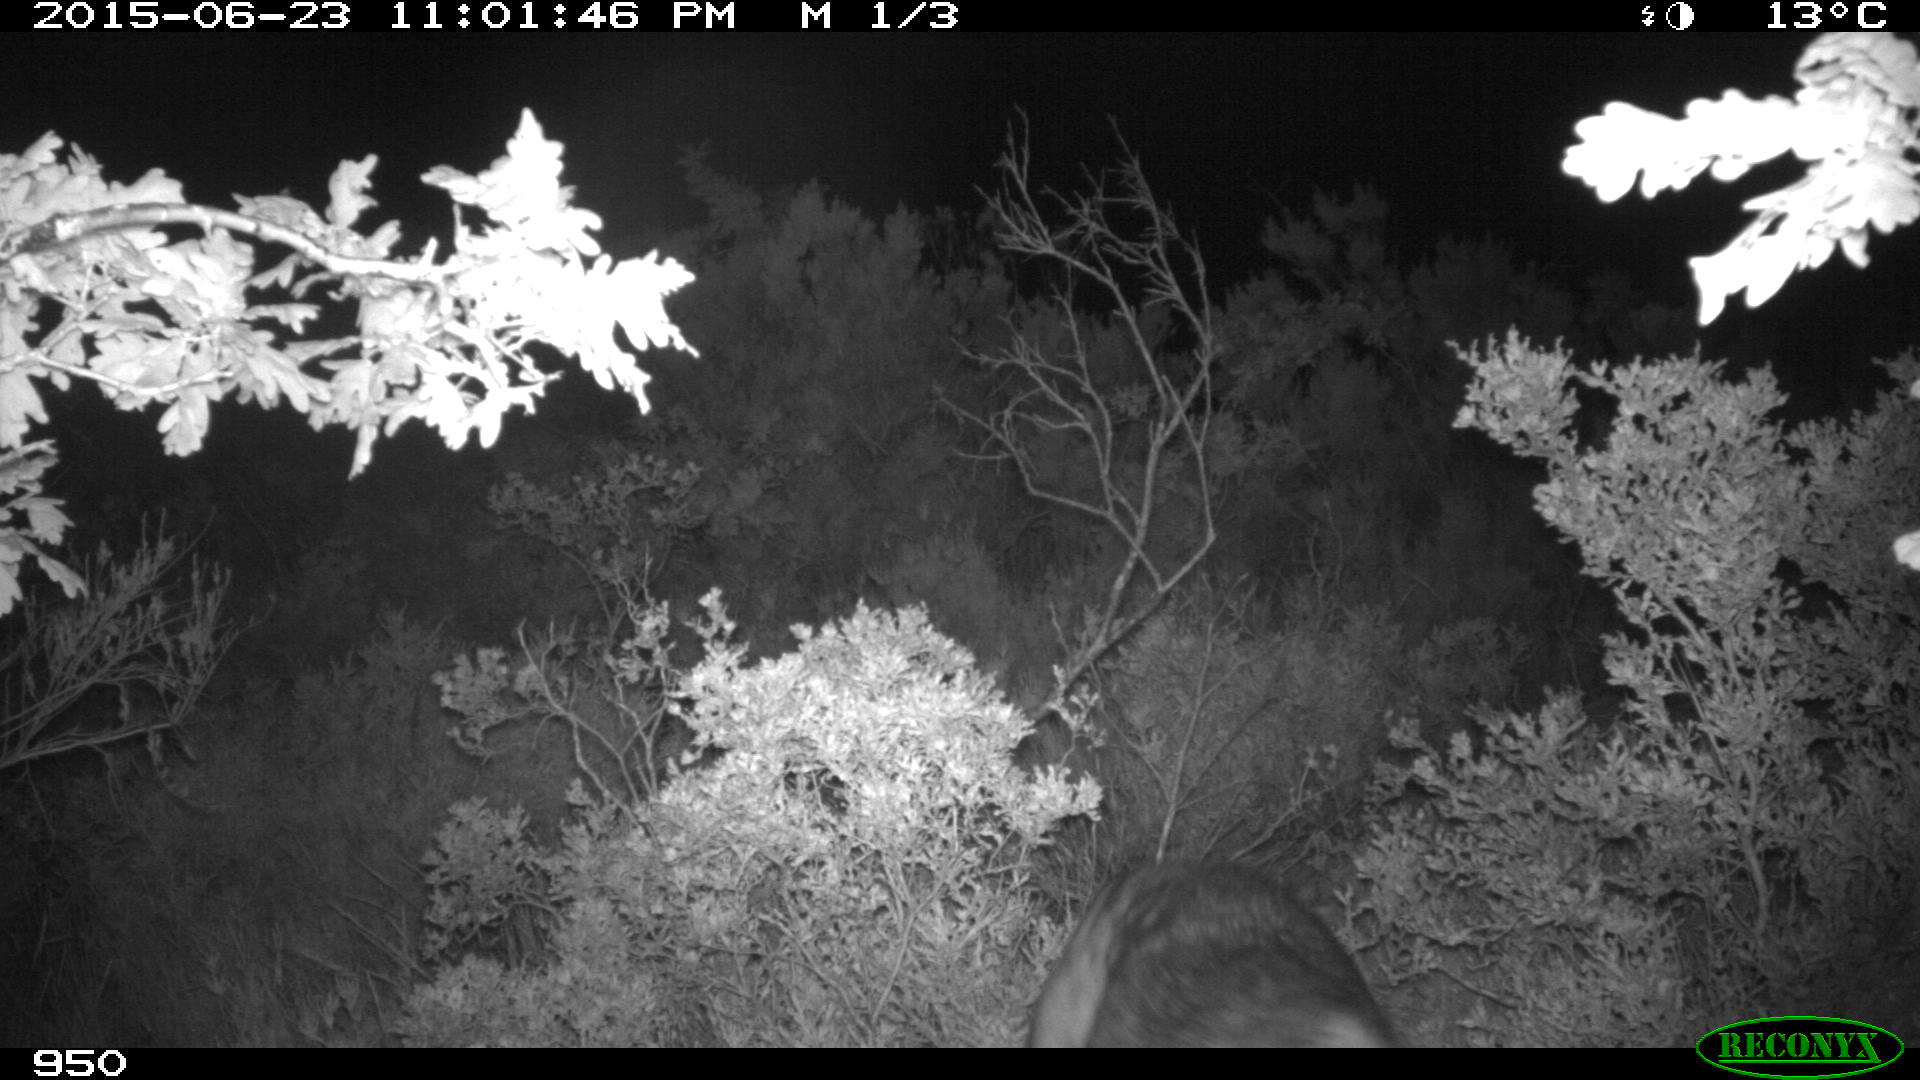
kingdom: Animalia
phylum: Chordata
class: Mammalia
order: Carnivora
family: Canidae
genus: Canis
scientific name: Canis lupus
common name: Gray wolf
